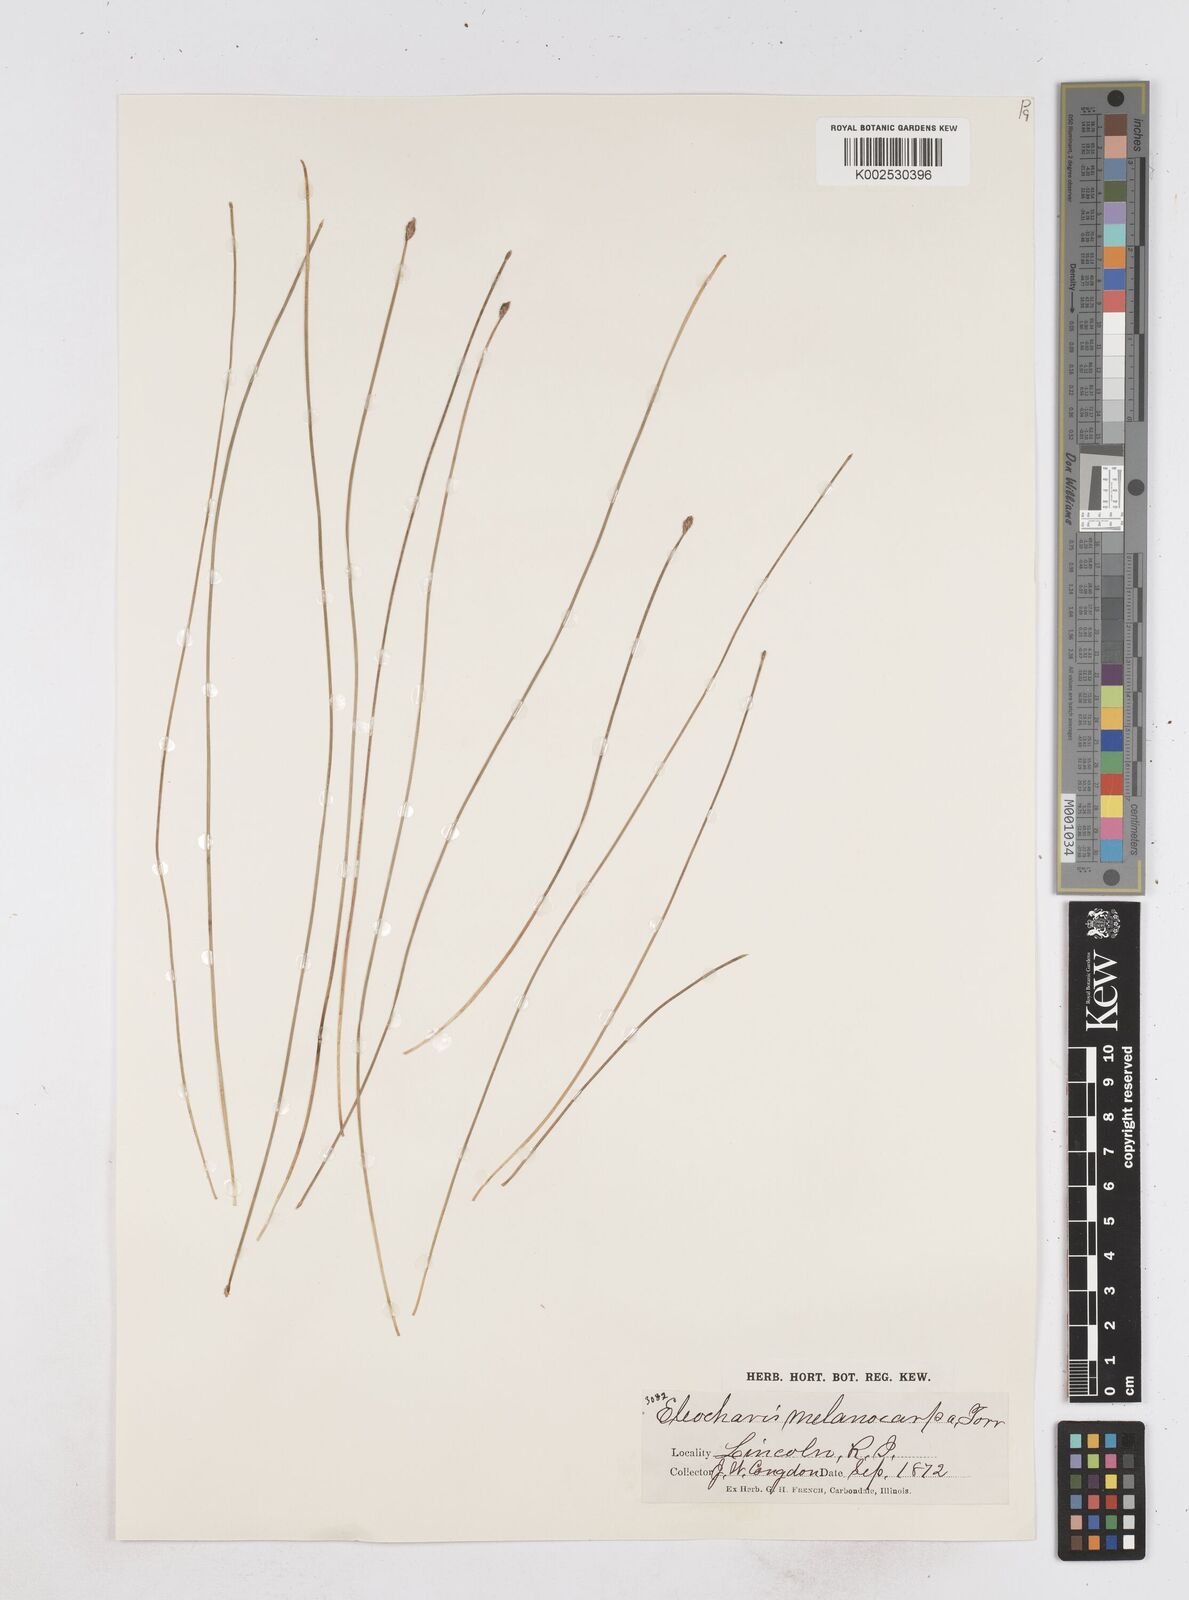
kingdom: Plantae
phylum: Tracheophyta
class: Liliopsida
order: Poales
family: Cyperaceae
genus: Eleocharis
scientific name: Eleocharis melanocarpa
